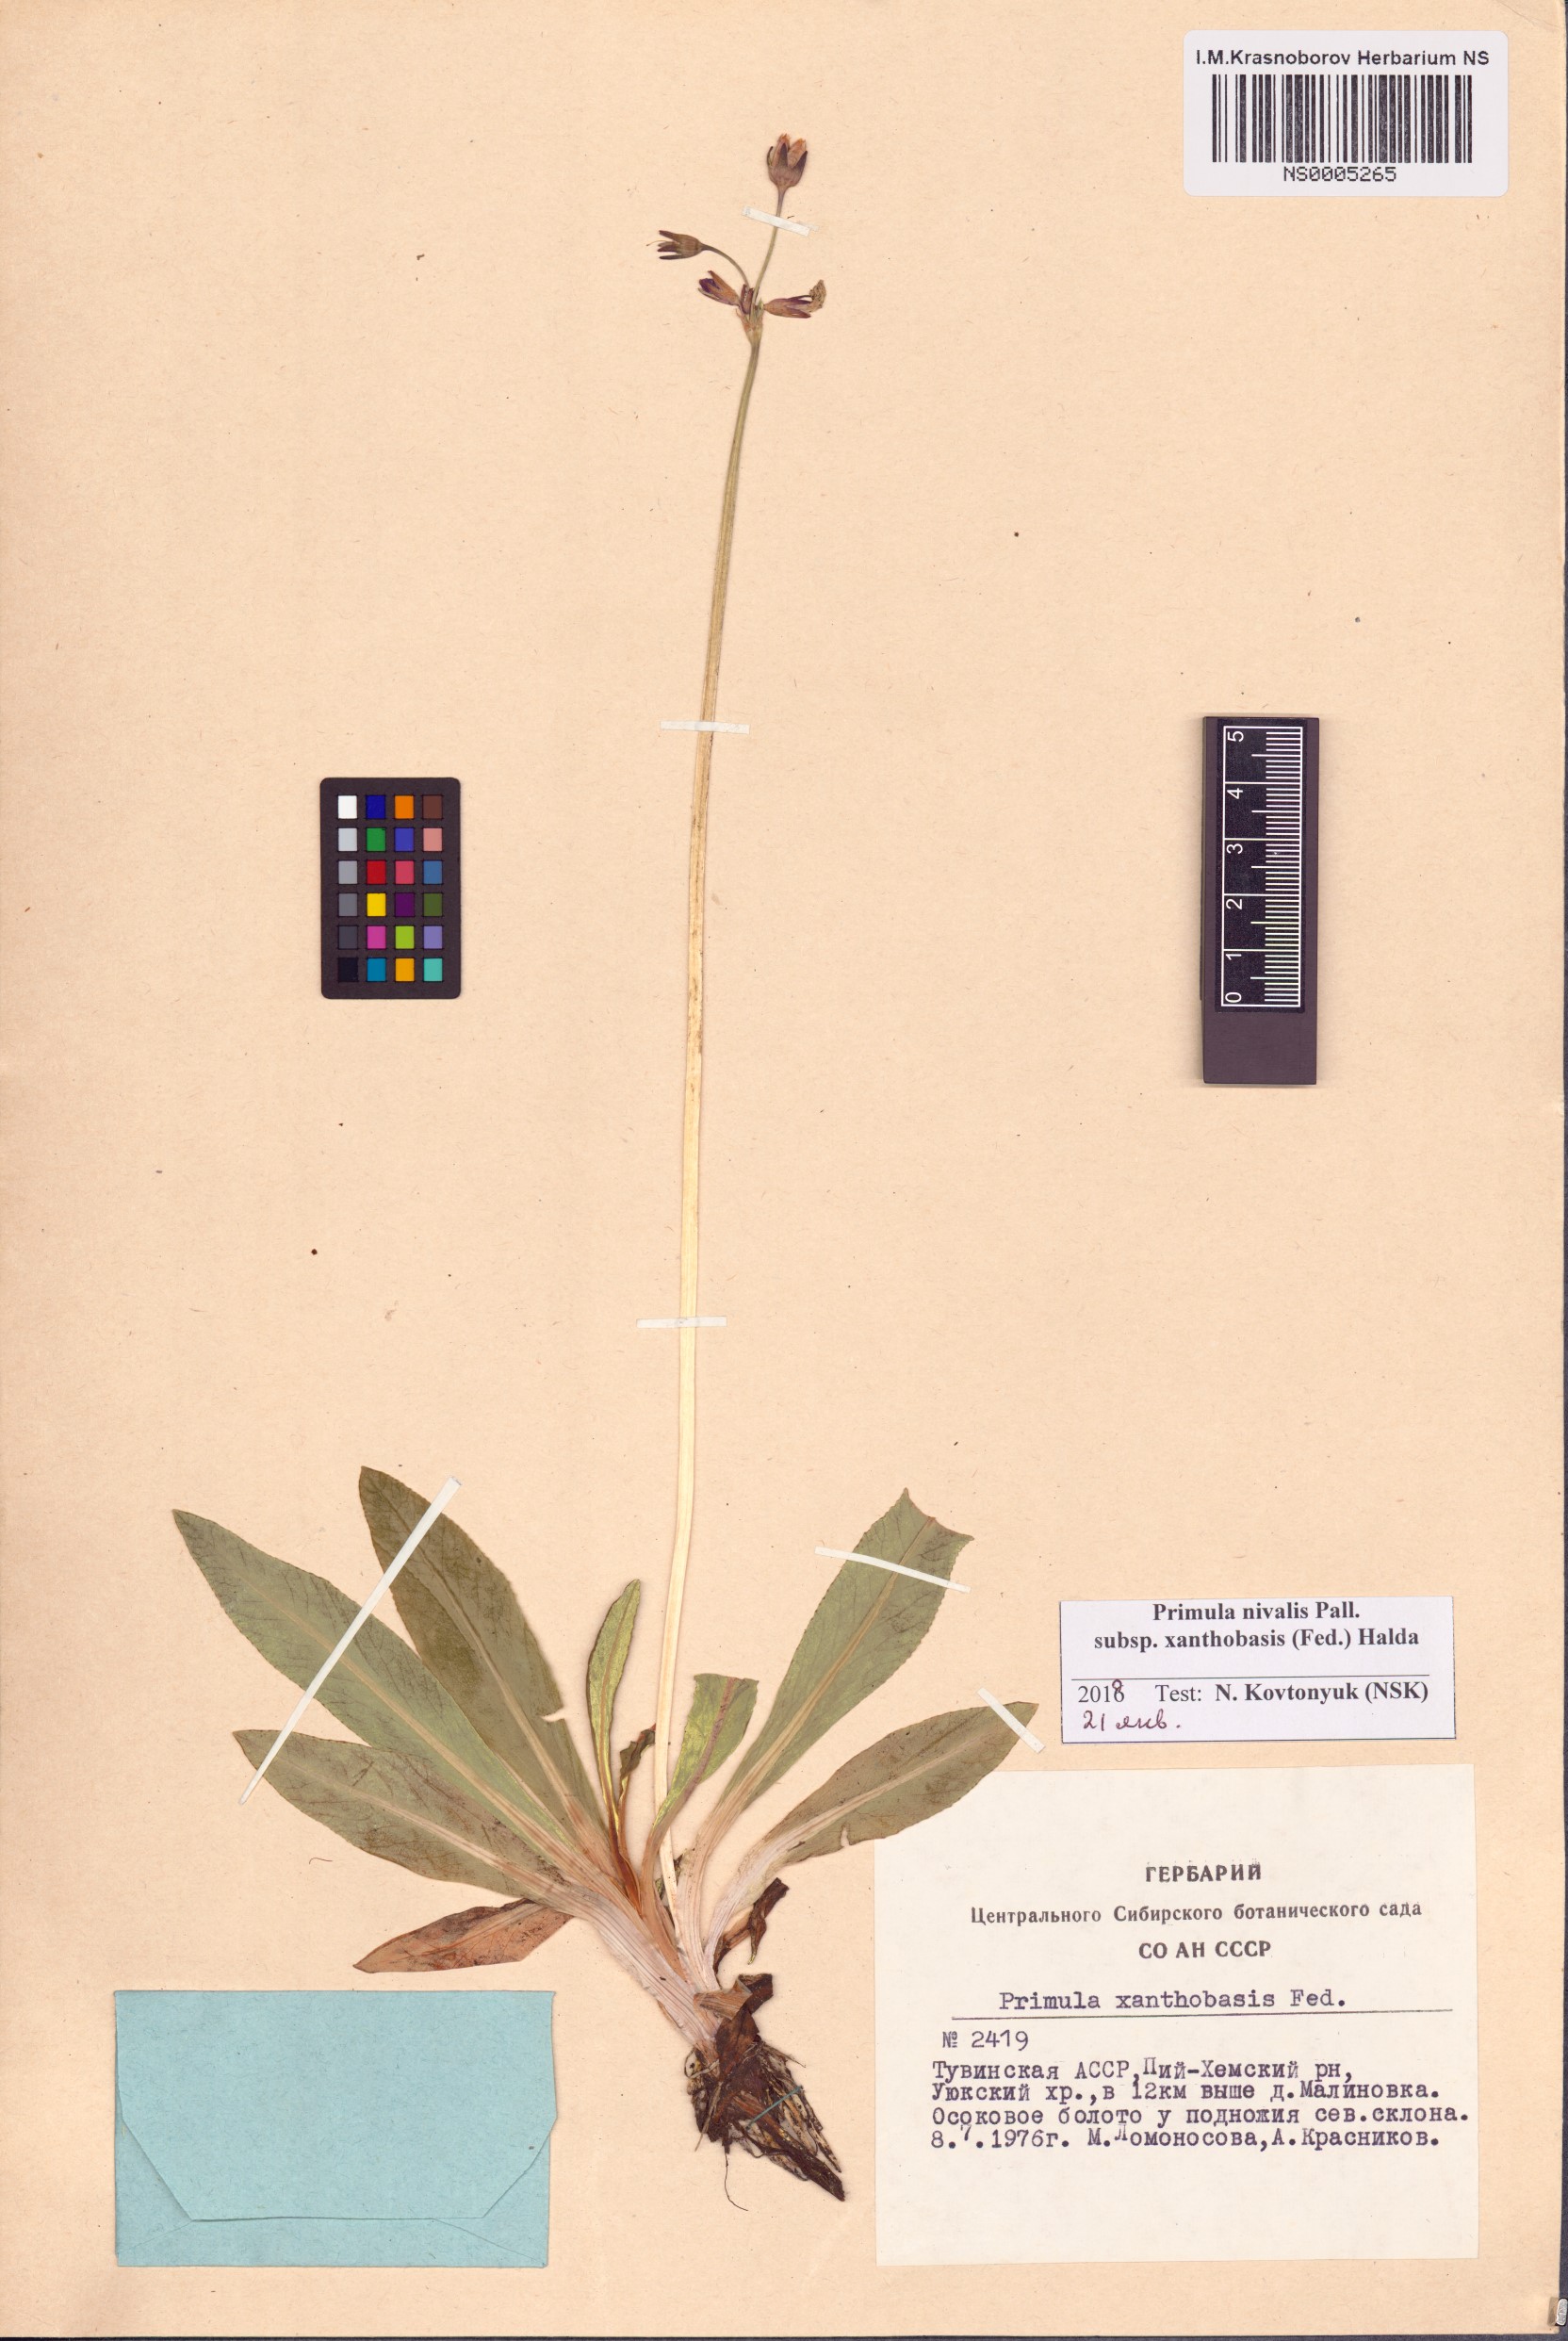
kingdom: Plantae
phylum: Tracheophyta
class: Magnoliopsida
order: Ericales
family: Primulaceae
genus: Primula
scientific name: Primula nivalis
